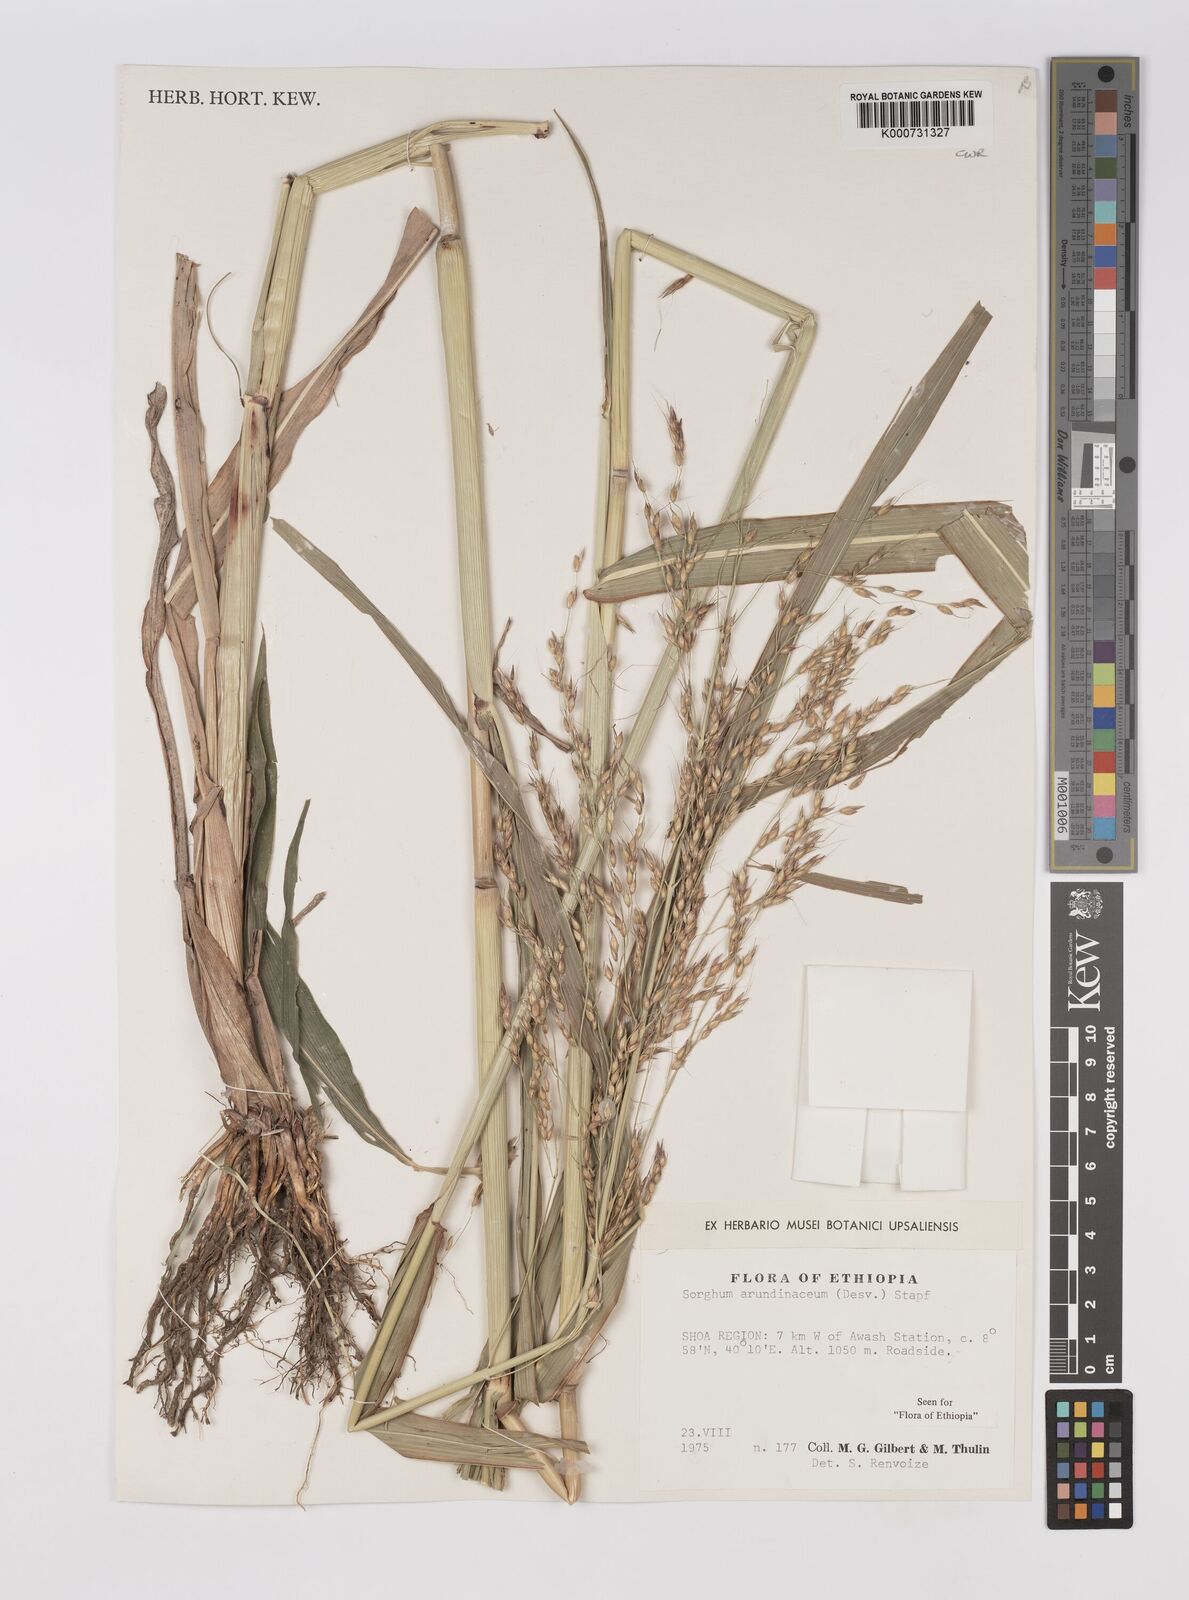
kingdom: Plantae
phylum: Tracheophyta
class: Liliopsida
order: Poales
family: Poaceae
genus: Sorghum
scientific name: Sorghum arundinaceum
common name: Sorghum
